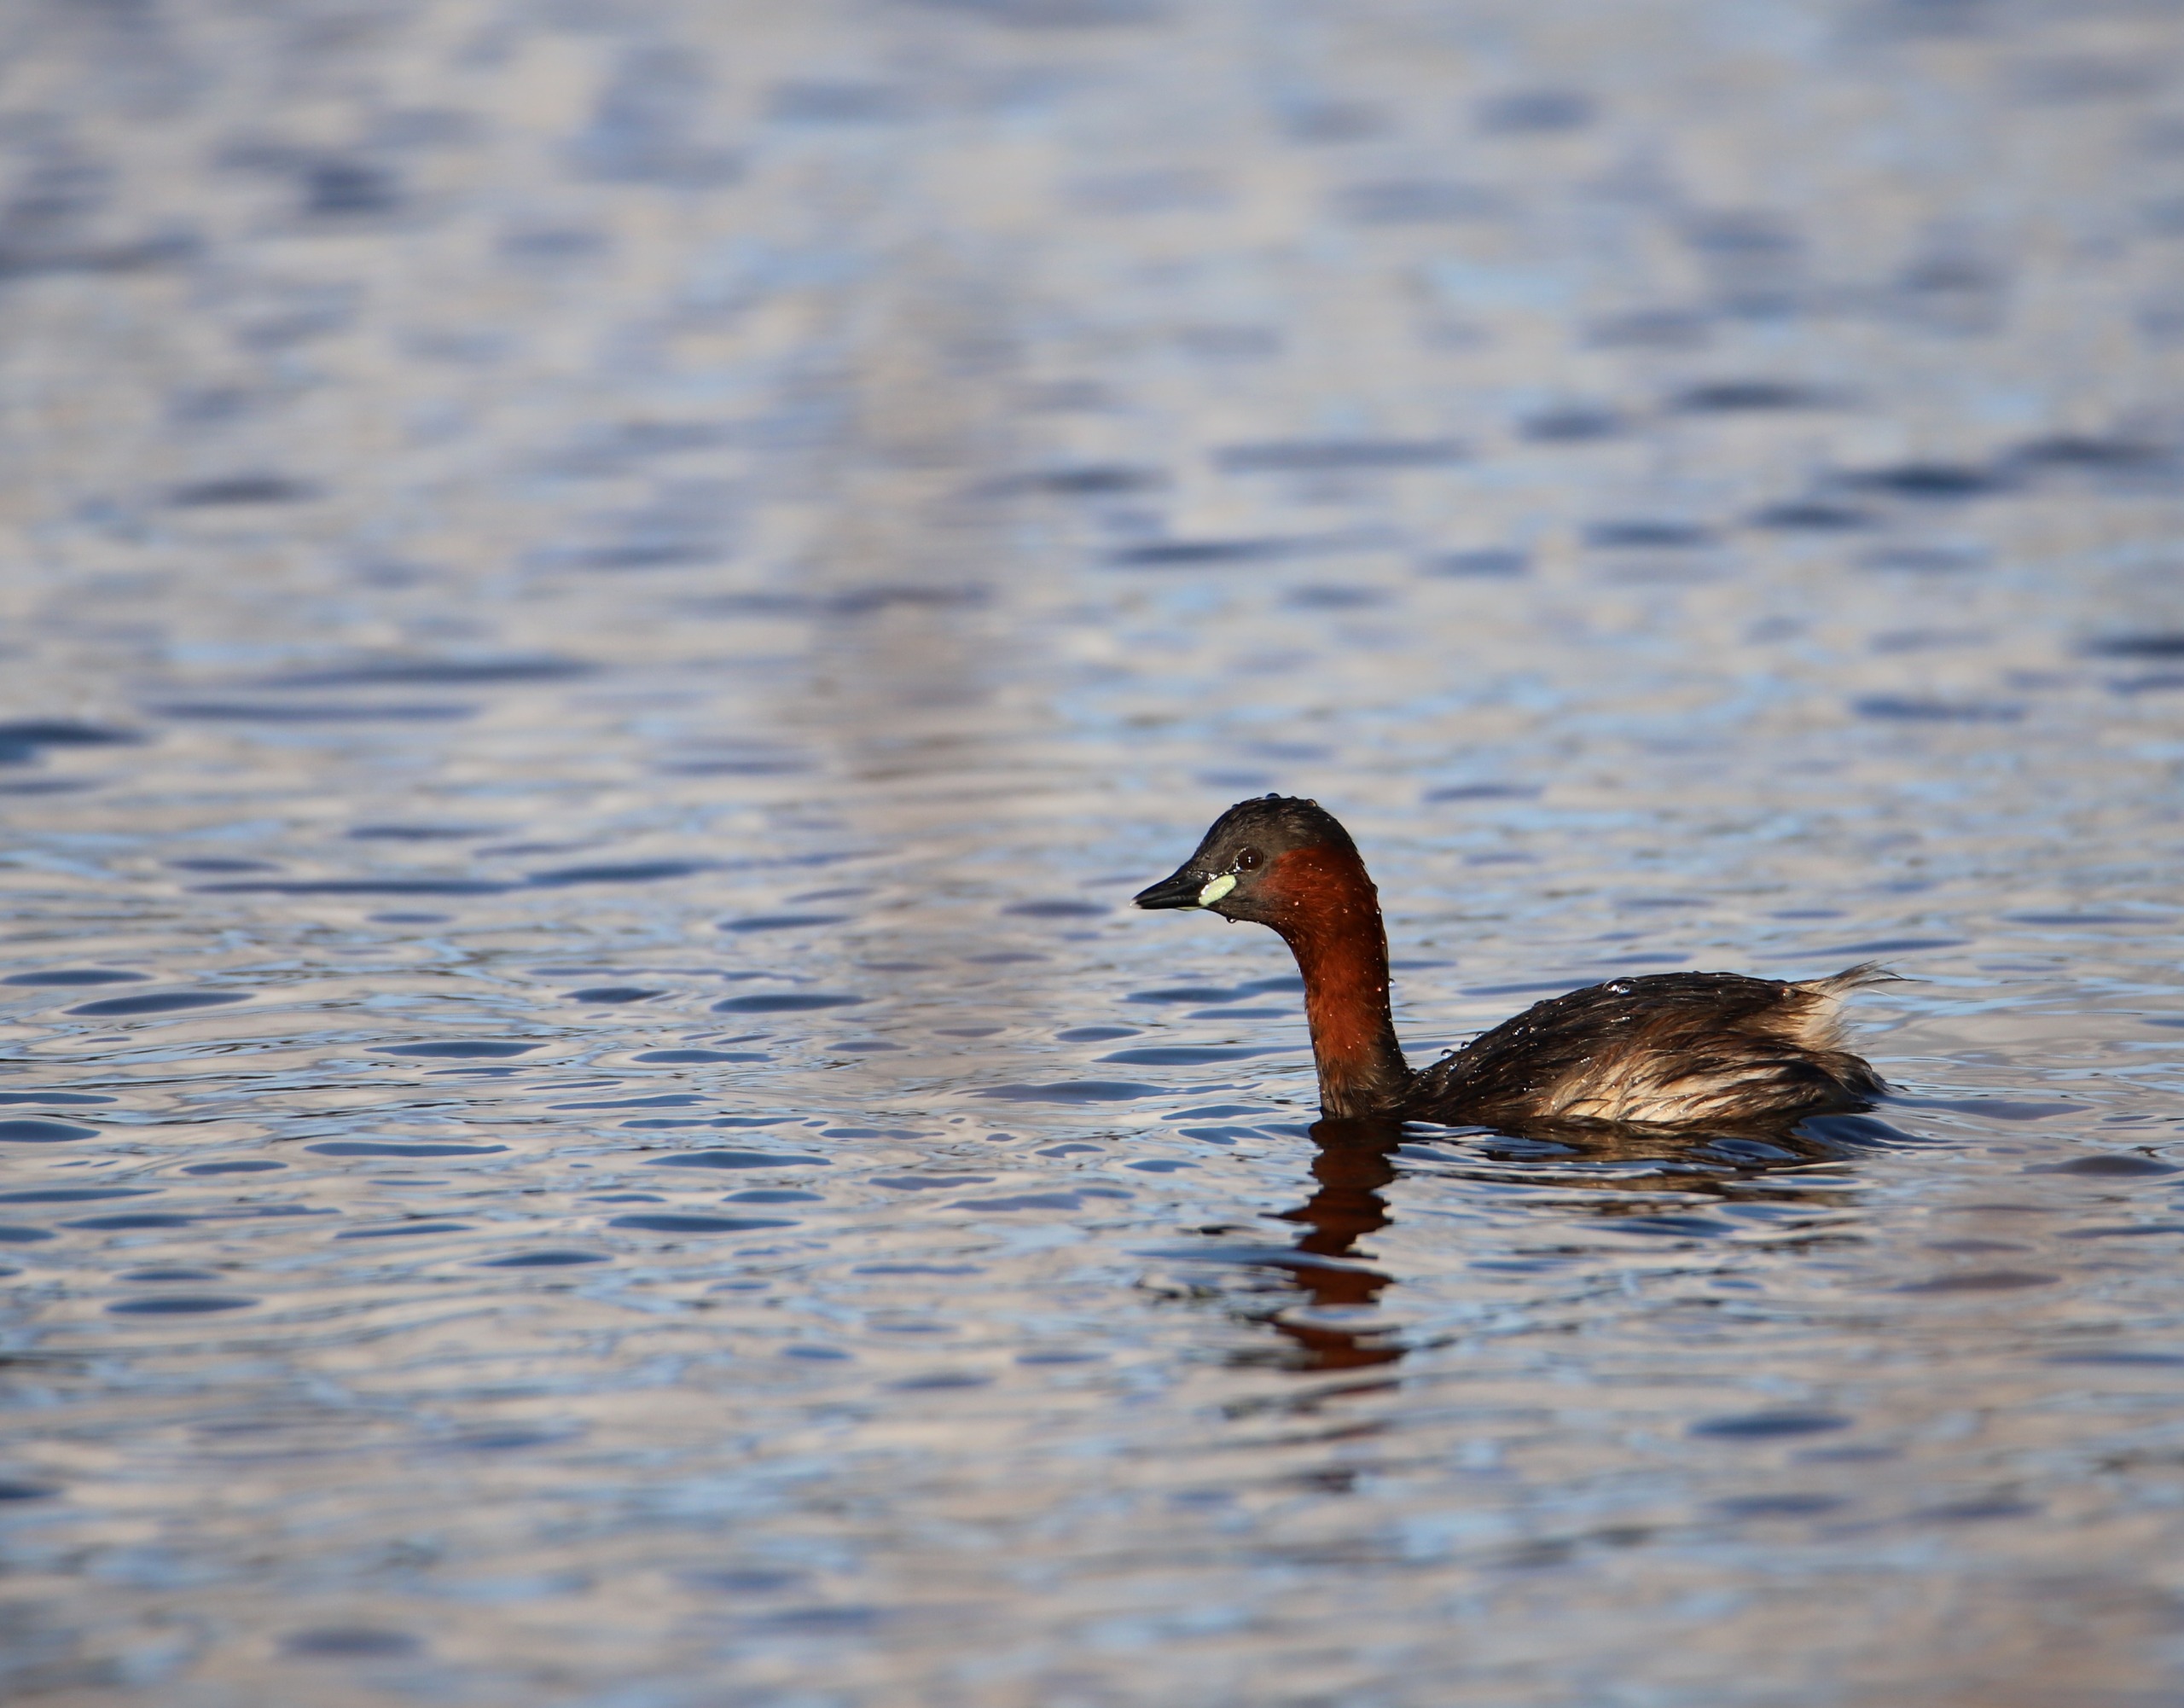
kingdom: Animalia
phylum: Chordata
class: Aves
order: Podicipediformes
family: Podicipedidae
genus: Tachybaptus
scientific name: Tachybaptus ruficollis
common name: Lille lappedykker
